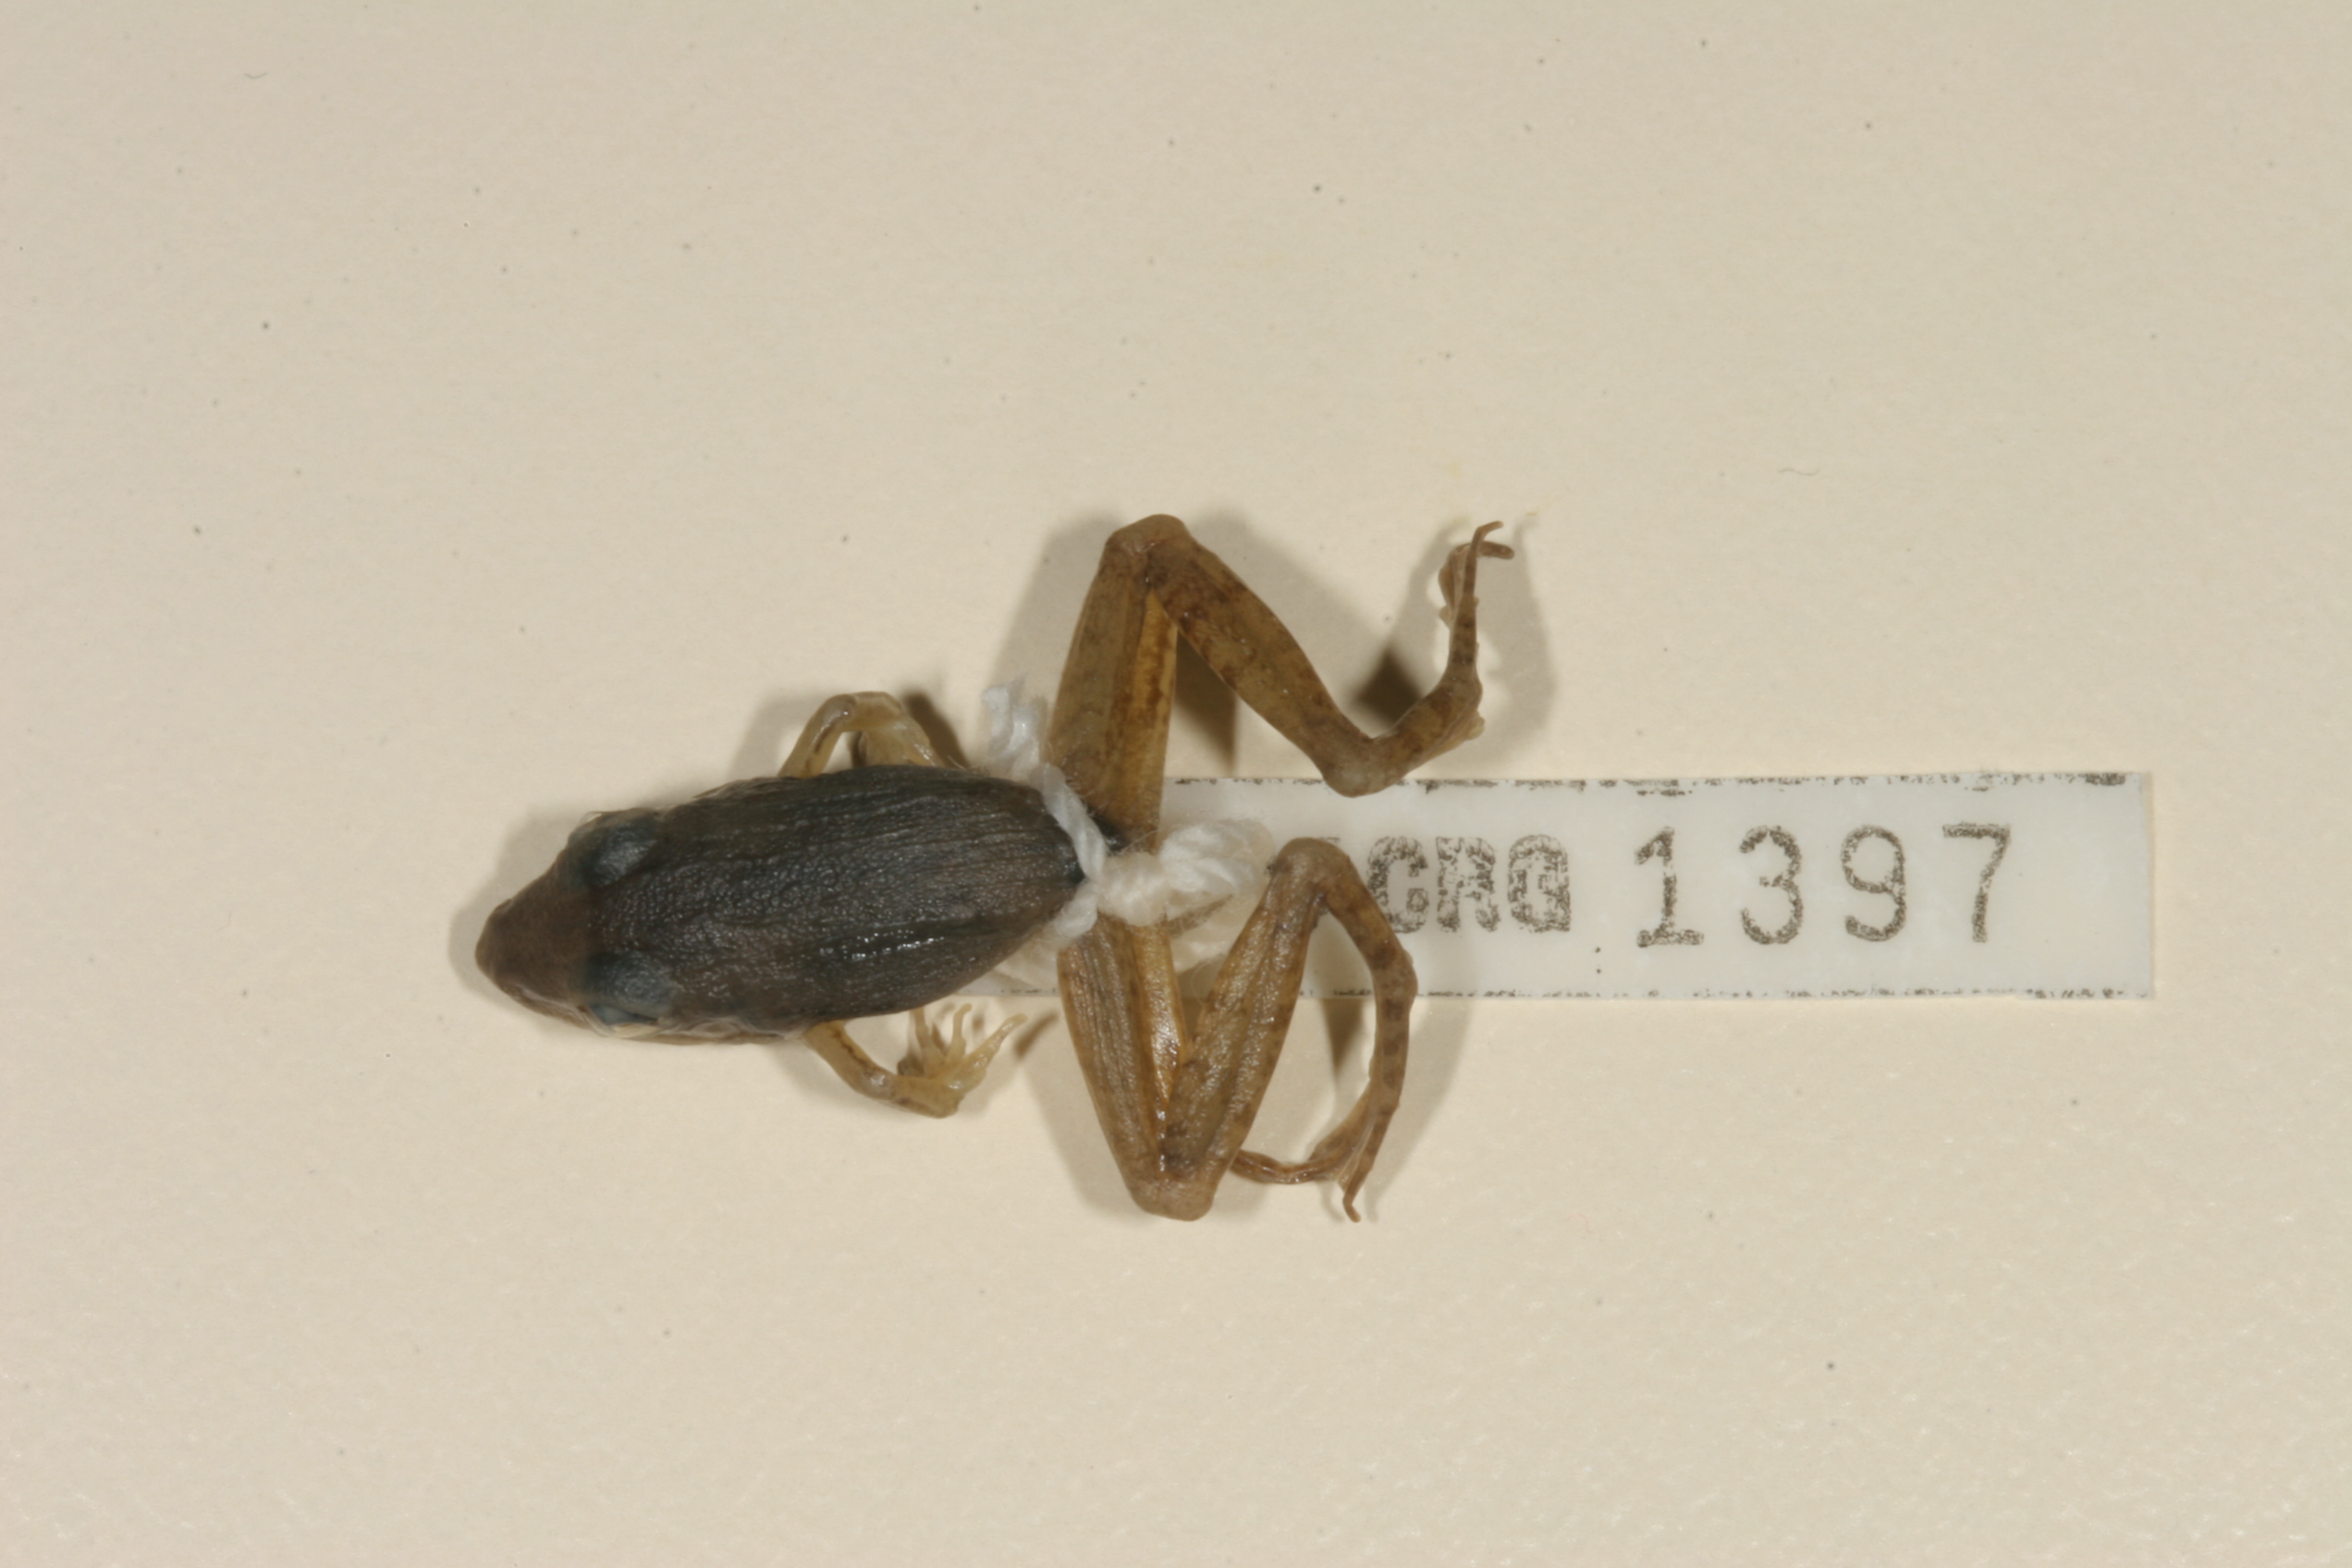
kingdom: Animalia
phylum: Chordata
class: Amphibia
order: Anura
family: Ptychadenidae
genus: Ptychadena
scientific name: Ptychadena anchietae
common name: Anchieta's ridged frog
